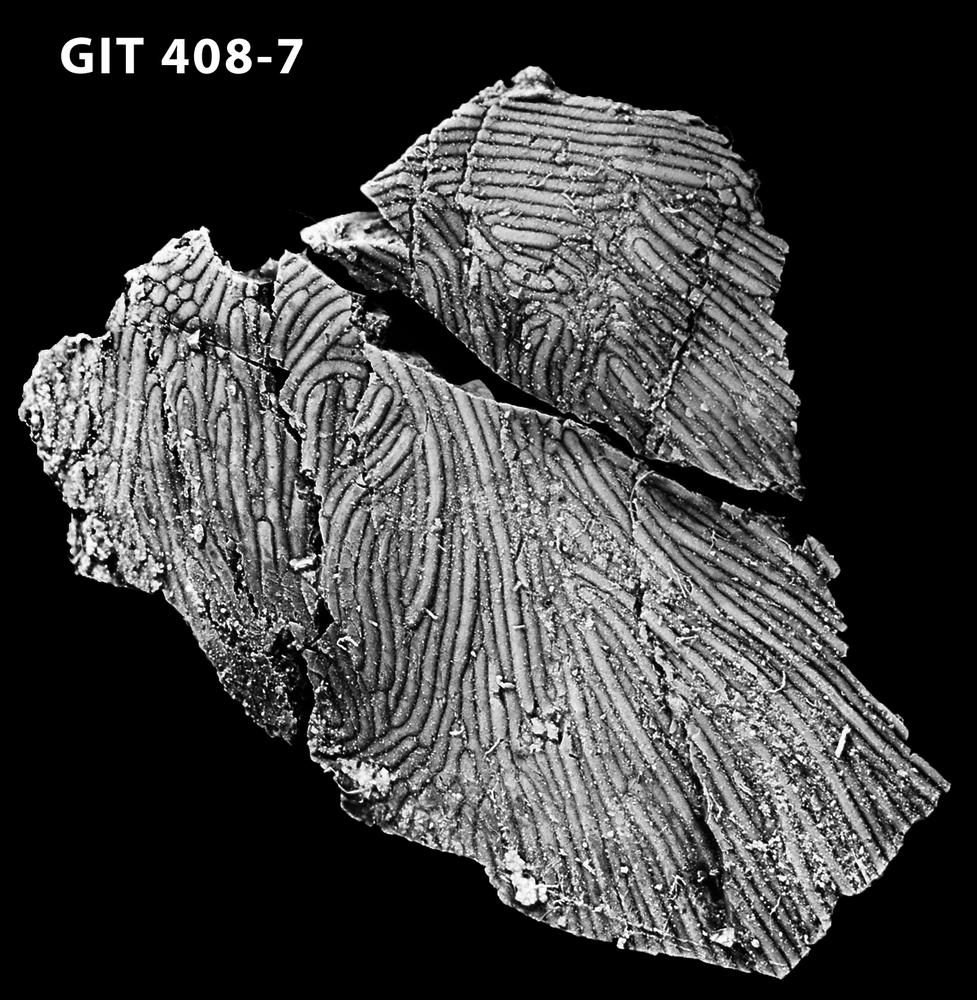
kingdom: Animalia
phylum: Chordata
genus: Archegonaspis
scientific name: Archegonaspis
